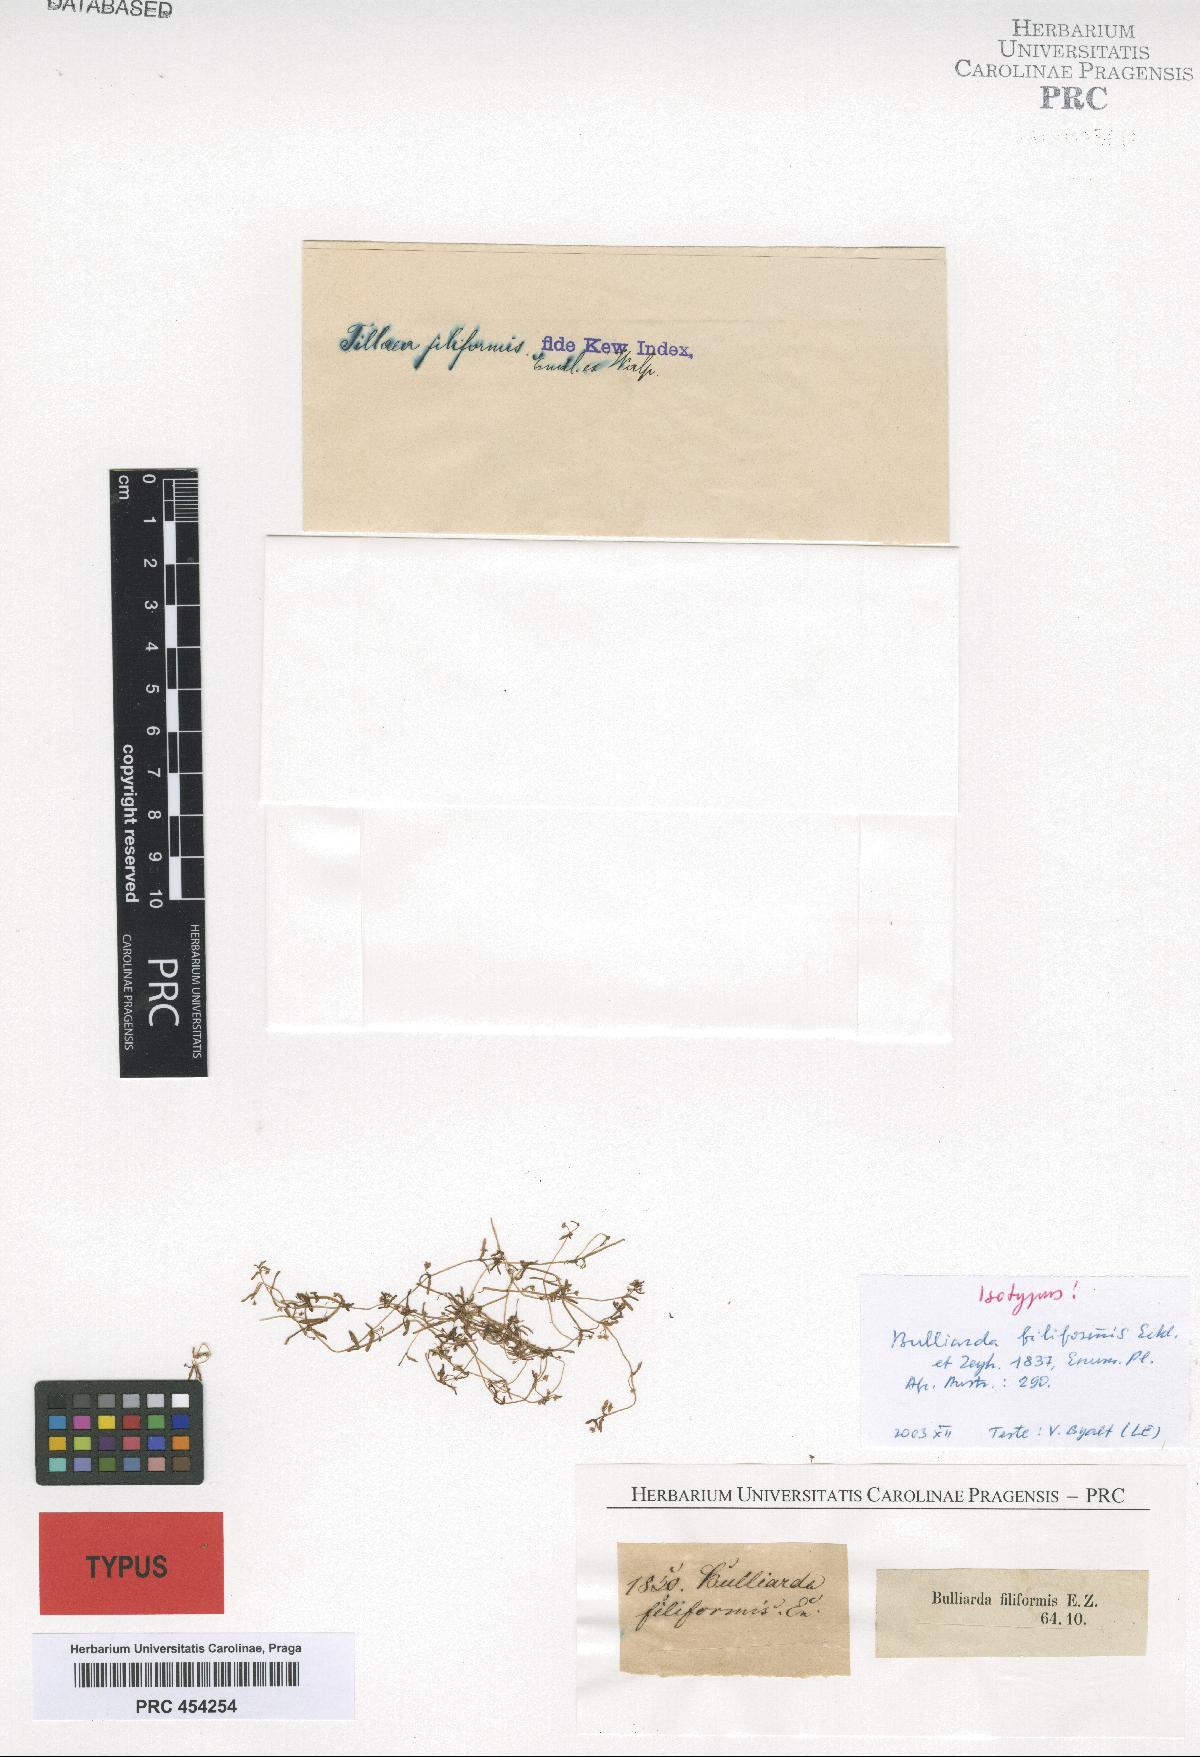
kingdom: Plantae
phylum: Tracheophyta
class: Magnoliopsida
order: Saxifragales
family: Crassulaceae
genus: Crassula
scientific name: Crassula natans
